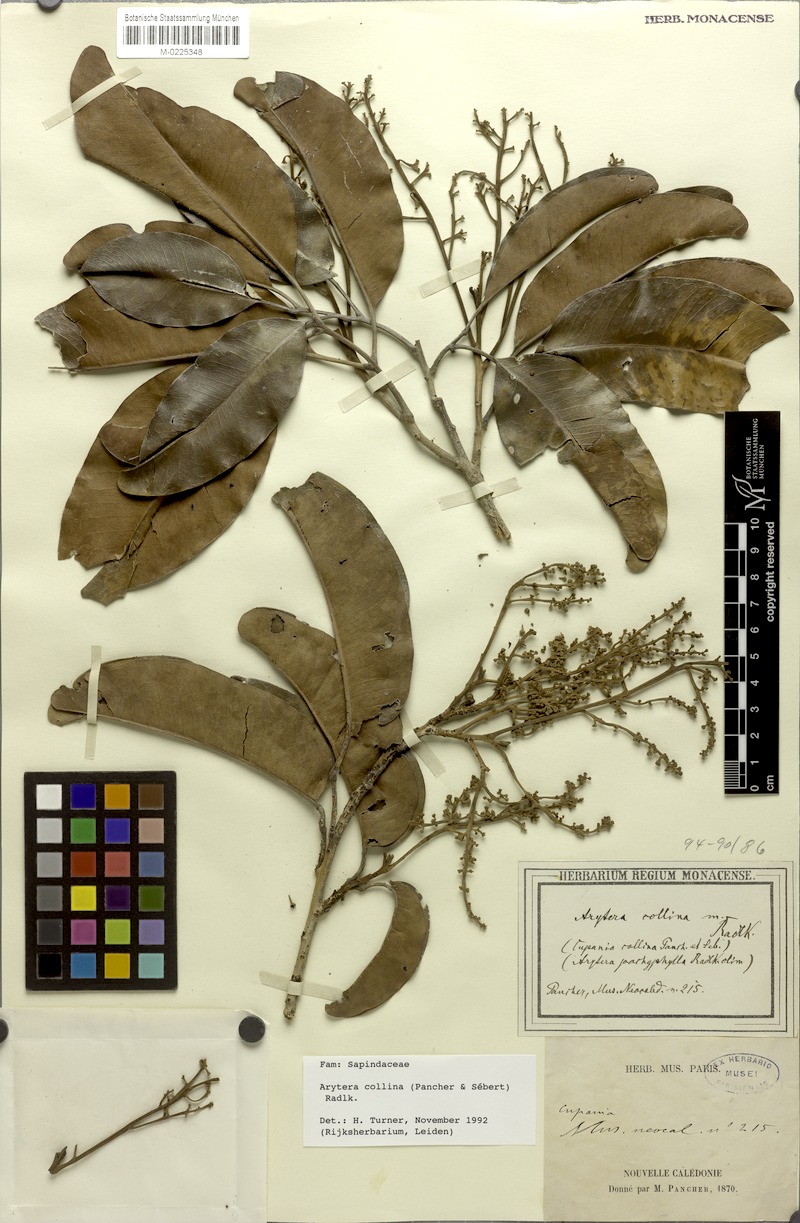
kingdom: Plantae
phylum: Tracheophyta
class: Magnoliopsida
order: Sapindales
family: Sapindaceae
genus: Neoarytera
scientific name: Neoarytera collina
